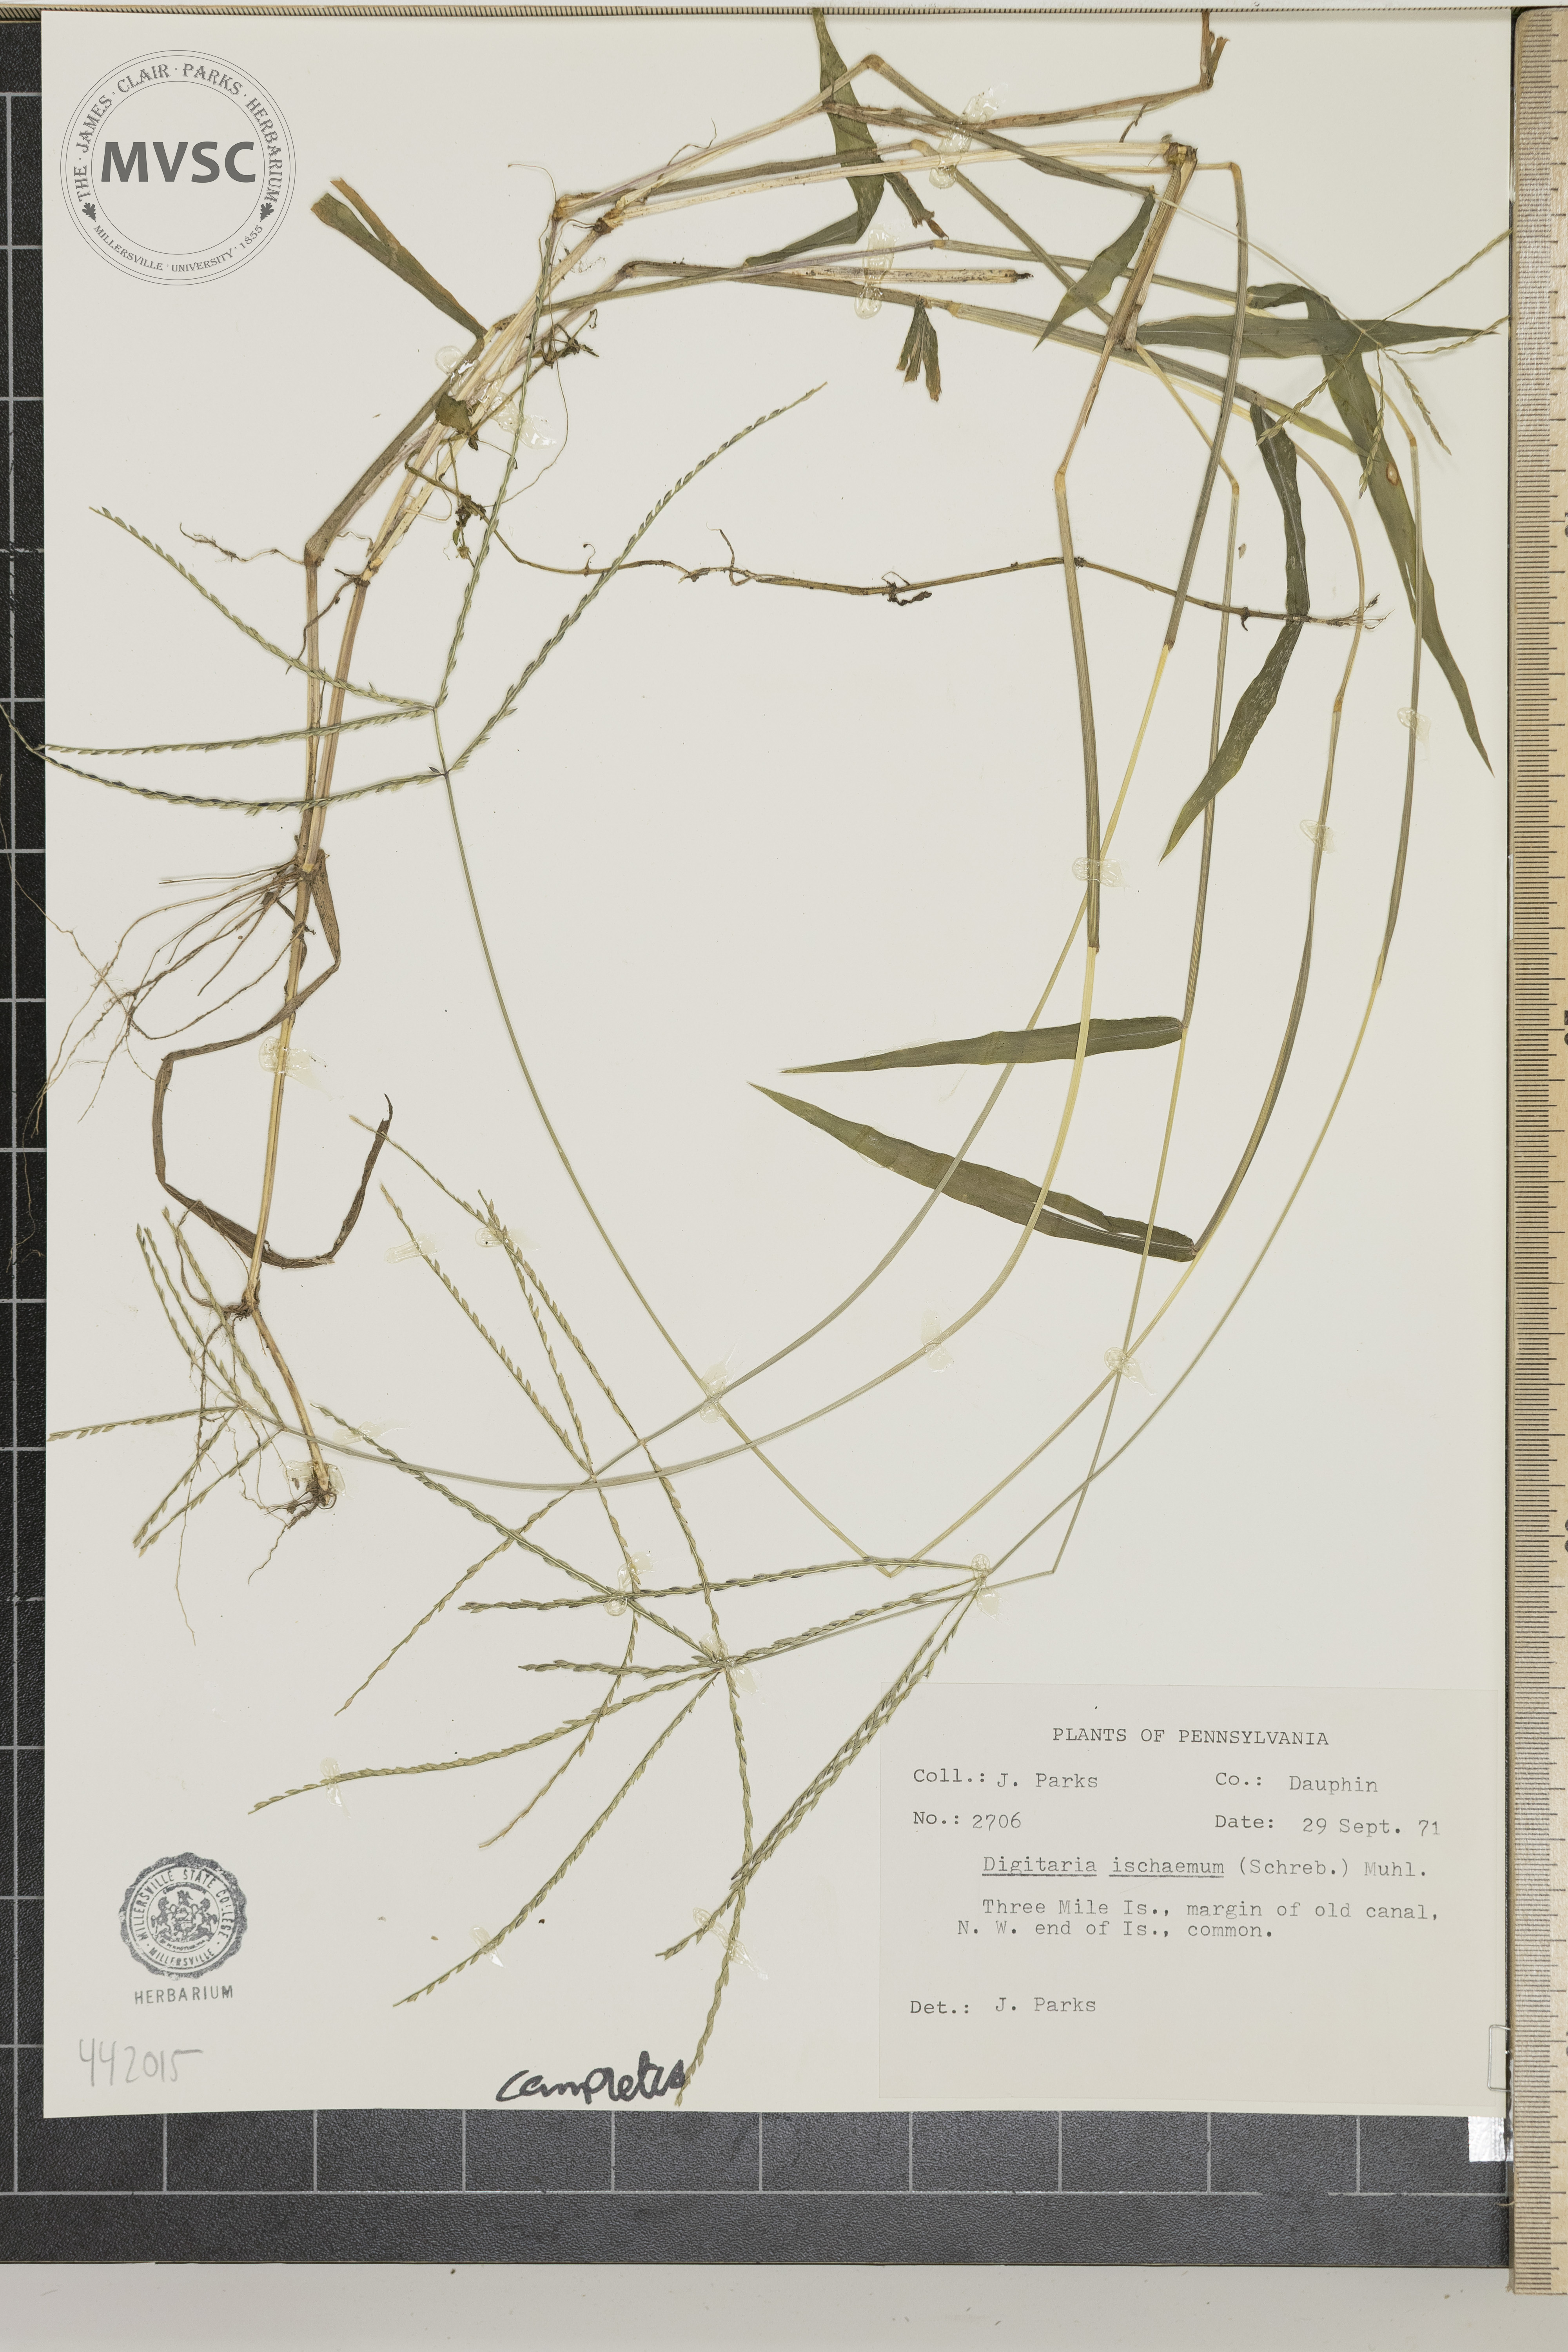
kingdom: Plantae
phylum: Tracheophyta
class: Liliopsida
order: Poales
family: Poaceae
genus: Digitaria
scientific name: Digitaria ischaemum
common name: Smooth crabgrass
